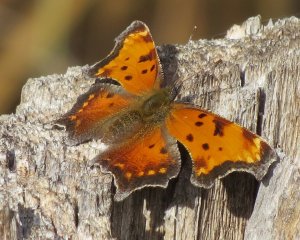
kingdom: Animalia
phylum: Arthropoda
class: Insecta
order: Lepidoptera
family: Nymphalidae
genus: Polygonia
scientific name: Polygonia gracilis
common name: Hoary Comma
